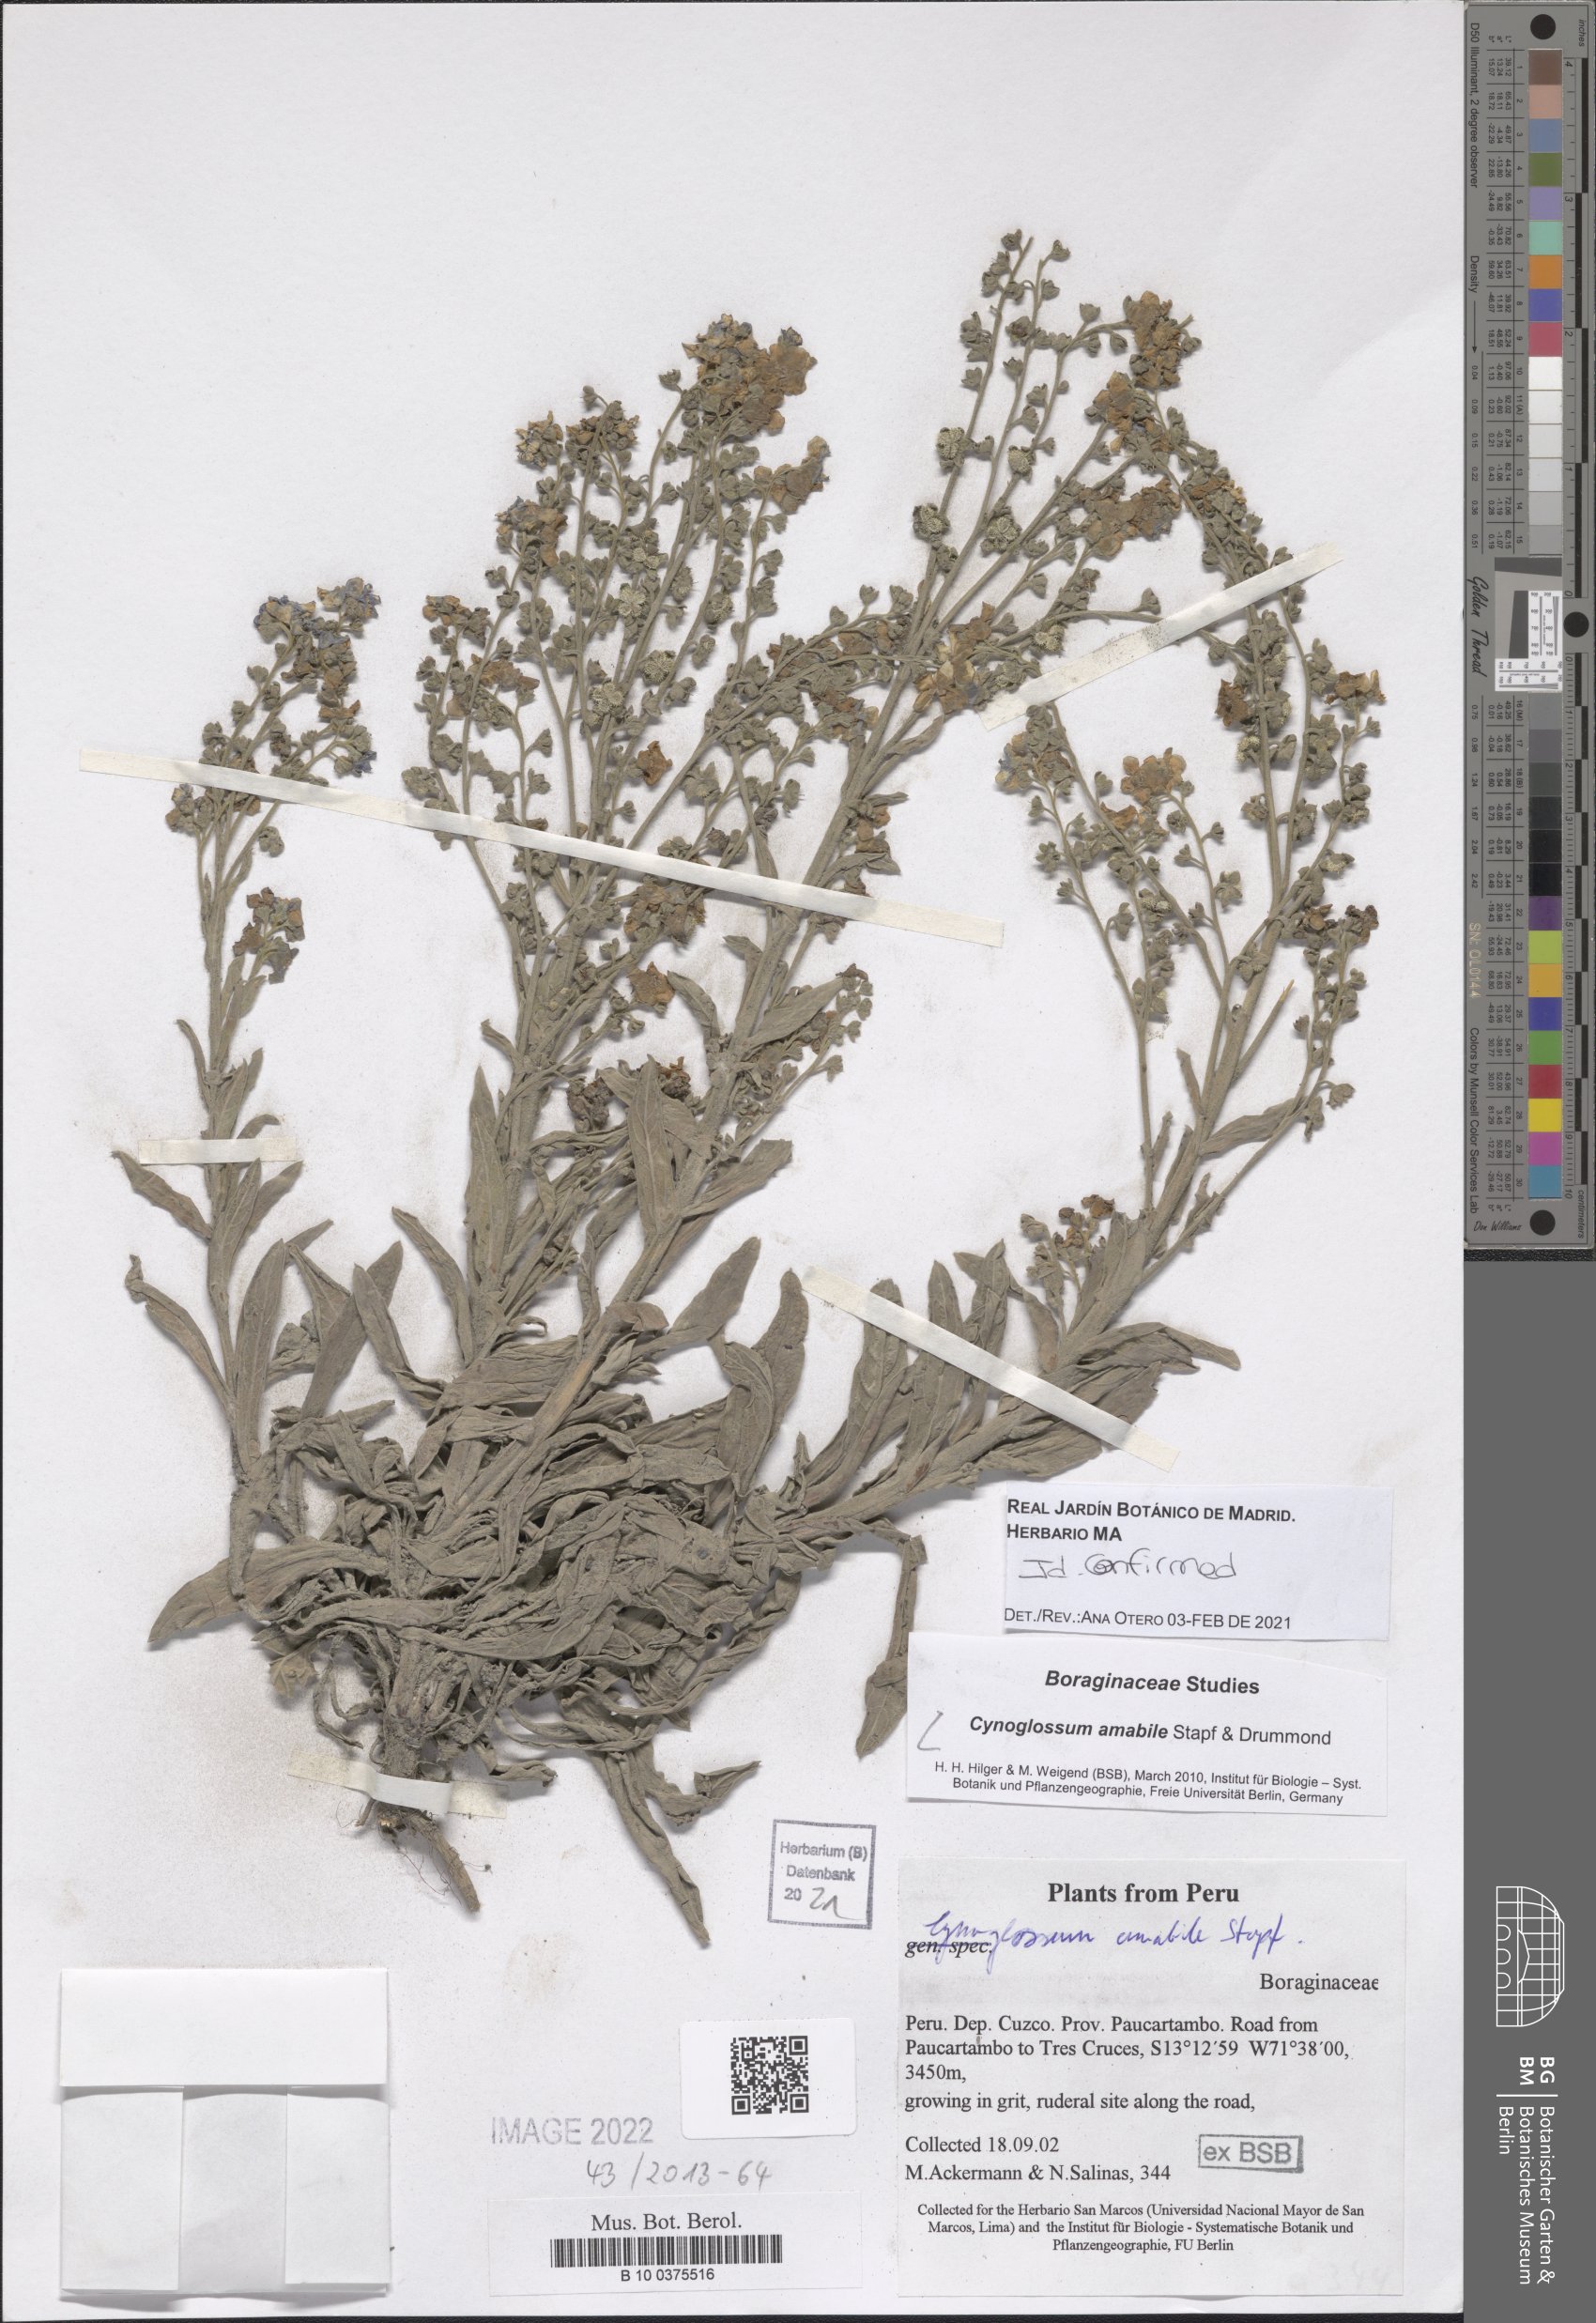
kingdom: Plantae
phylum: Tracheophyta
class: Magnoliopsida
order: Boraginales
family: Boraginaceae
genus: Cynoglossum
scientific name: Cynoglossum amabile
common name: Chinese hound's tongue
